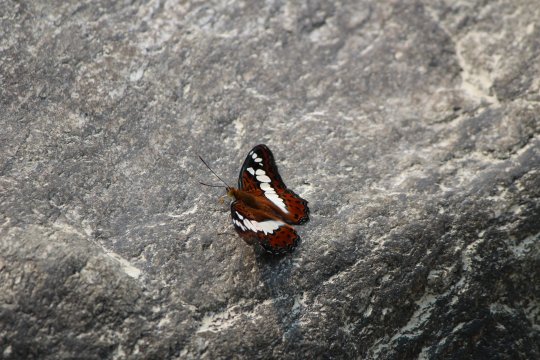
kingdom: Animalia
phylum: Arthropoda
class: Insecta
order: Lepidoptera
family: Nymphalidae
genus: Limenitis
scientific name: Limenitis Moduza procris
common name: Commander
